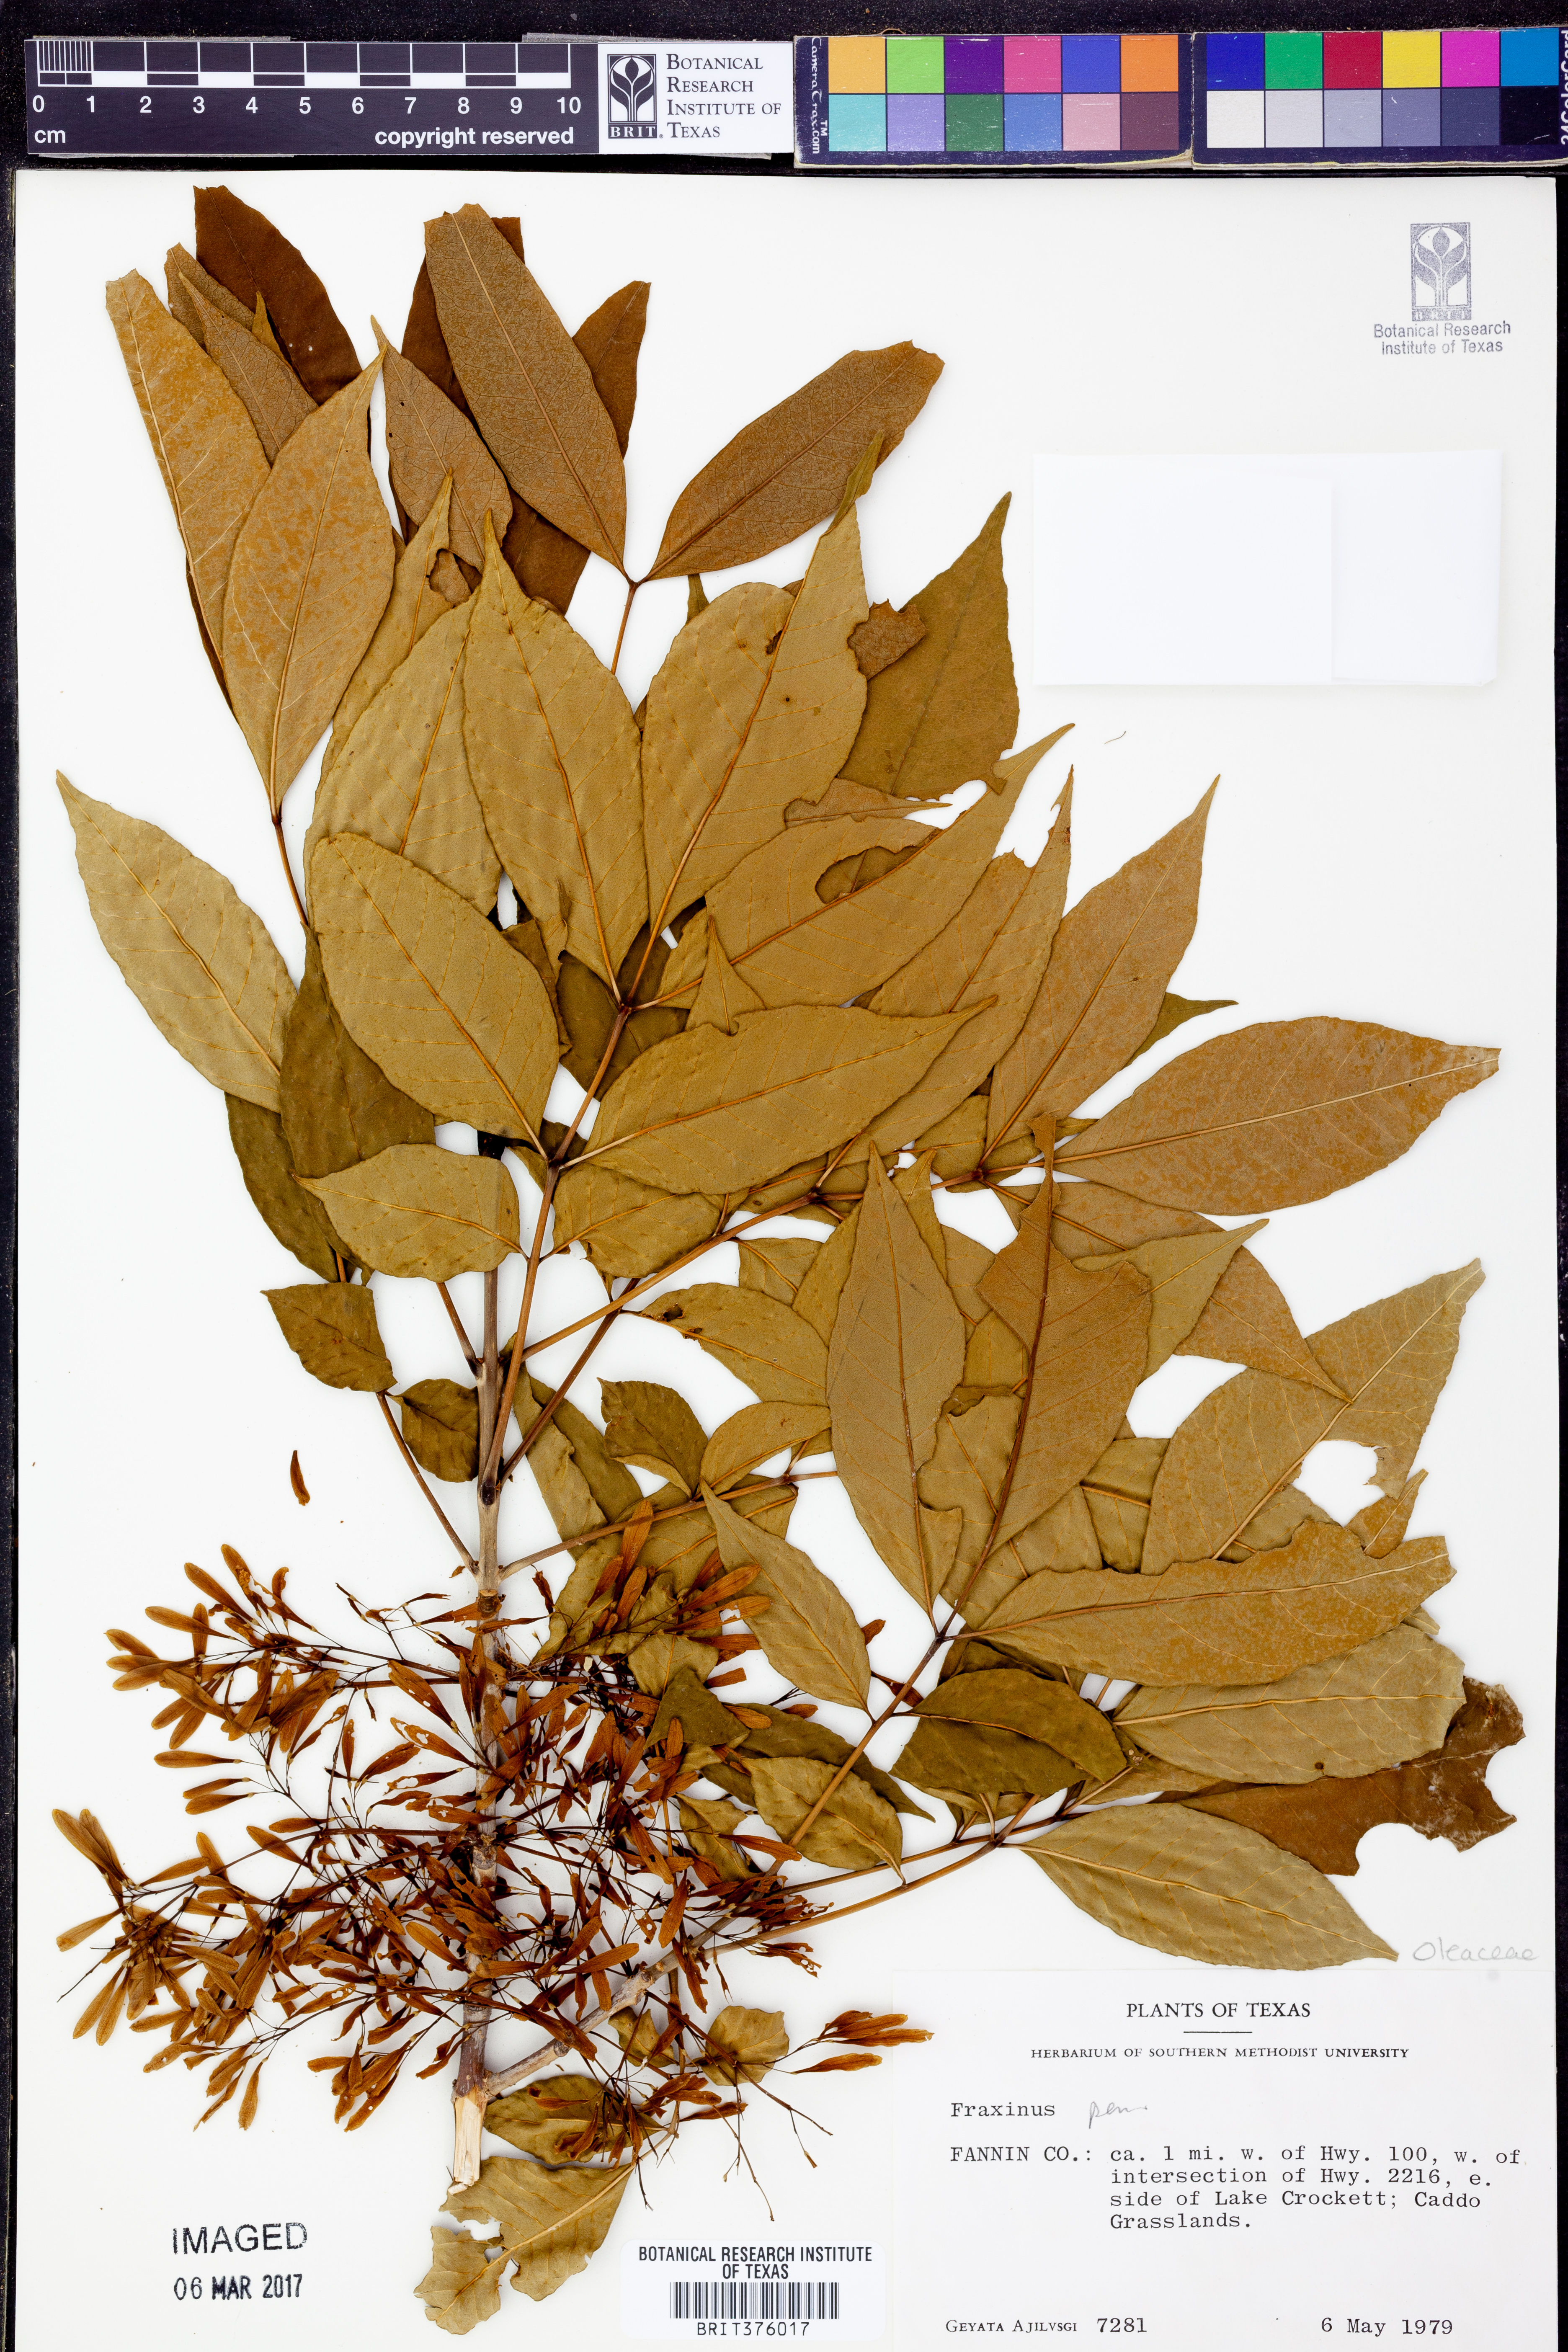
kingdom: Plantae
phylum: Tracheophyta
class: Magnoliopsida
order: Lamiales
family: Oleaceae
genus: Fraxinus
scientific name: Fraxinus pennsylvanica
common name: Green ash
